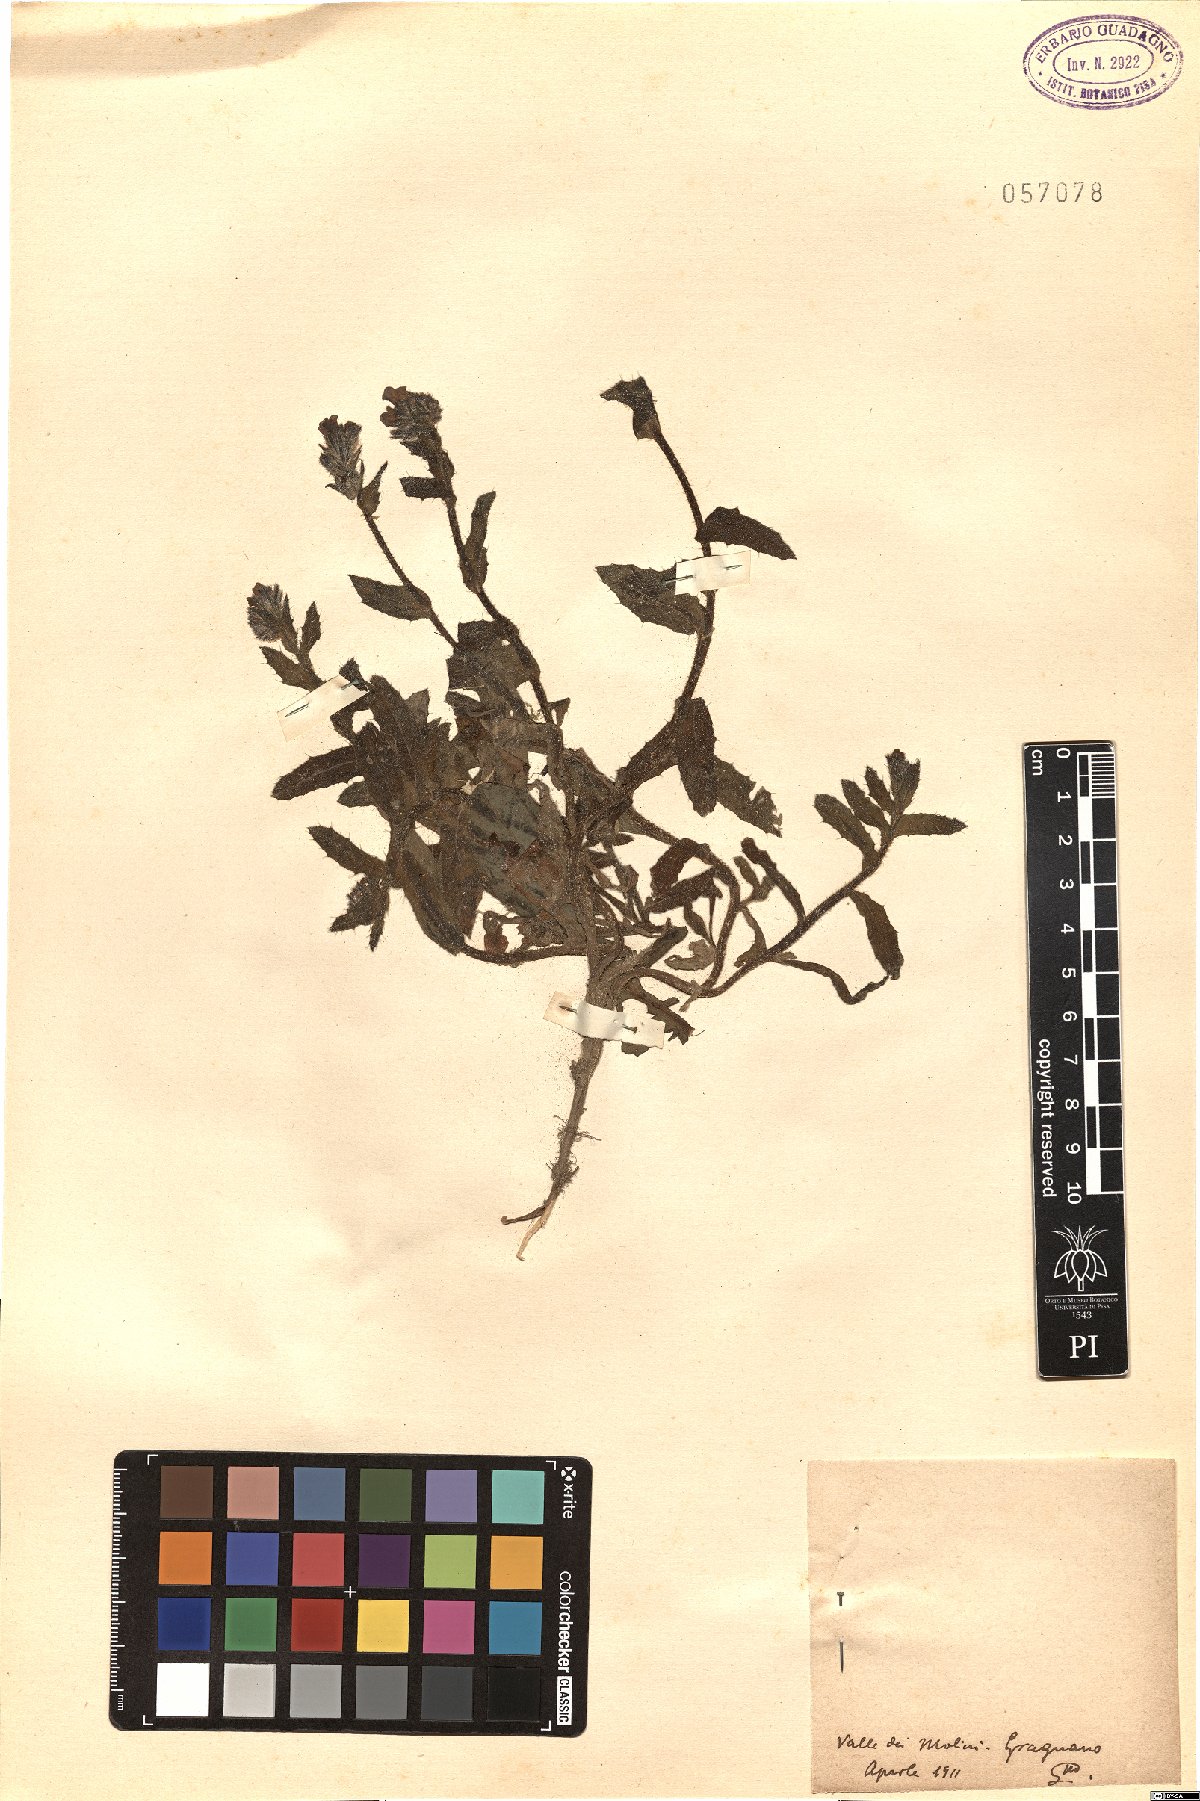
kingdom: Plantae
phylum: Tracheophyta
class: Magnoliopsida
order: Boraginales
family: Boraginaceae
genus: Lycopsis
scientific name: Lycopsis
